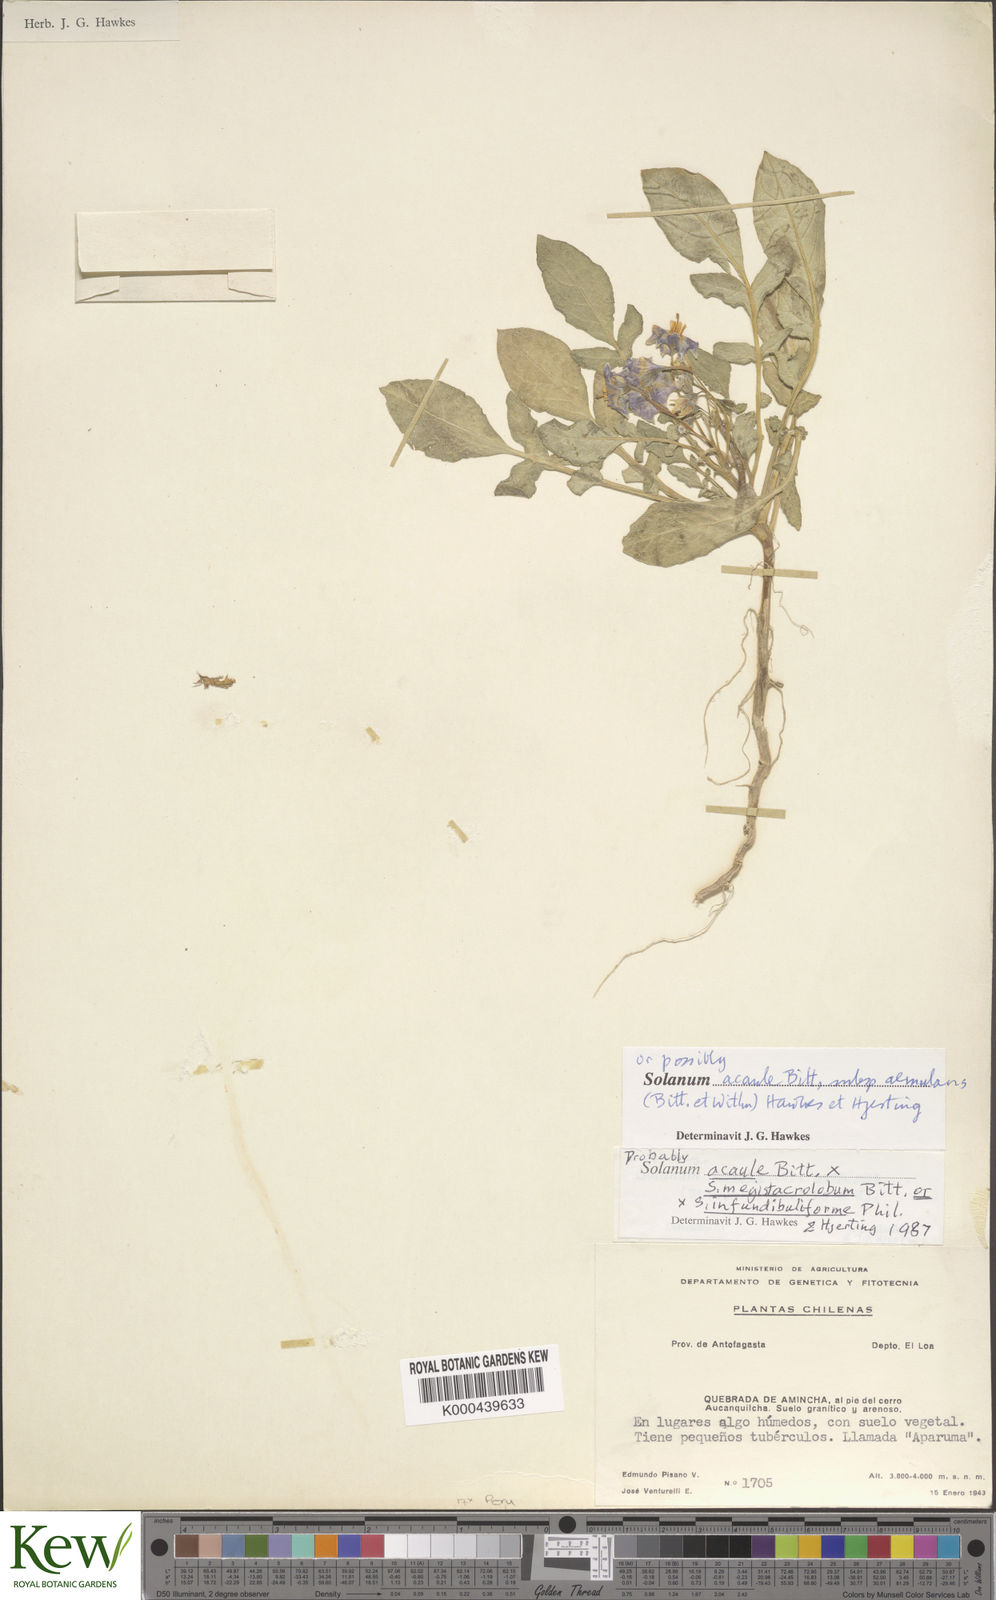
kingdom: Plantae
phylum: Tracheophyta
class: Magnoliopsida
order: Solanales
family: Solanaceae
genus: Solanum
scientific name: Solanum acaule
